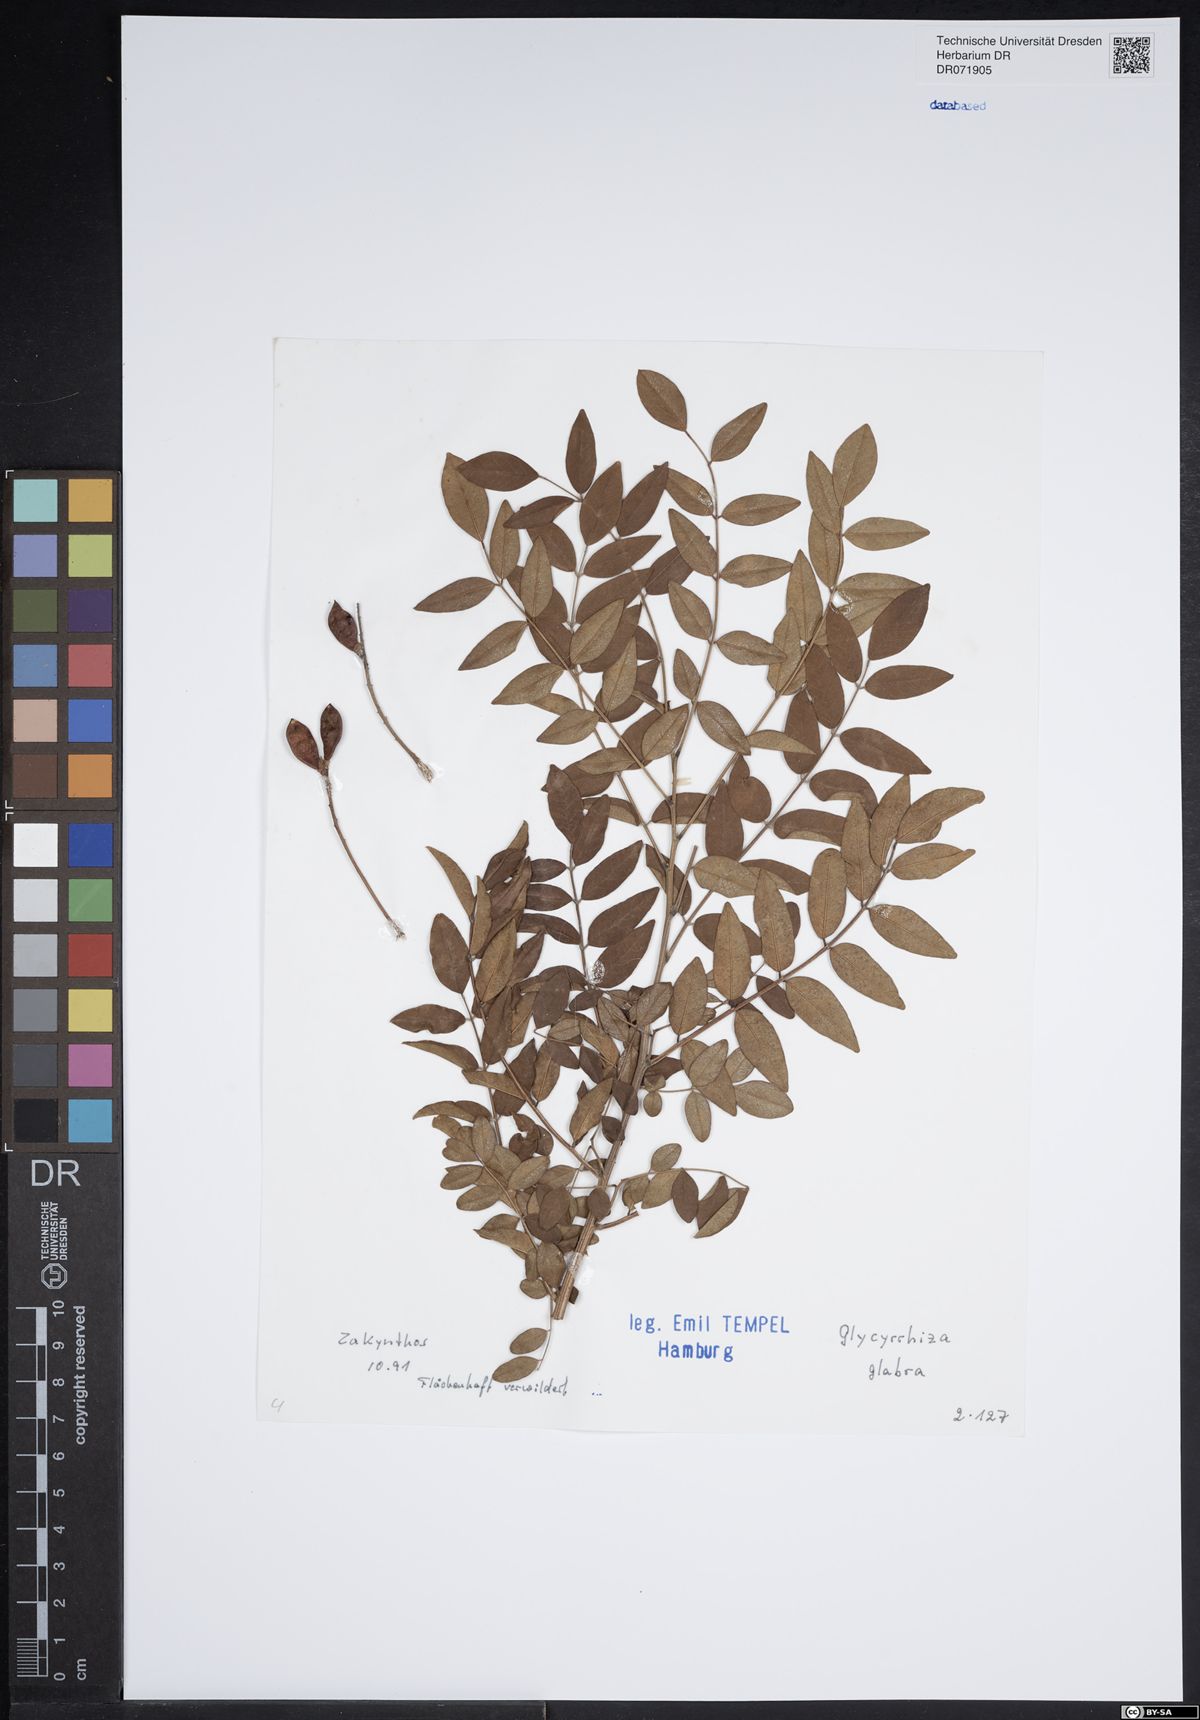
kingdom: Plantae
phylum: Tracheophyta
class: Magnoliopsida
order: Fabales
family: Fabaceae
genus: Glycyrrhiza
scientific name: Glycyrrhiza glabra
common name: Liquorice
